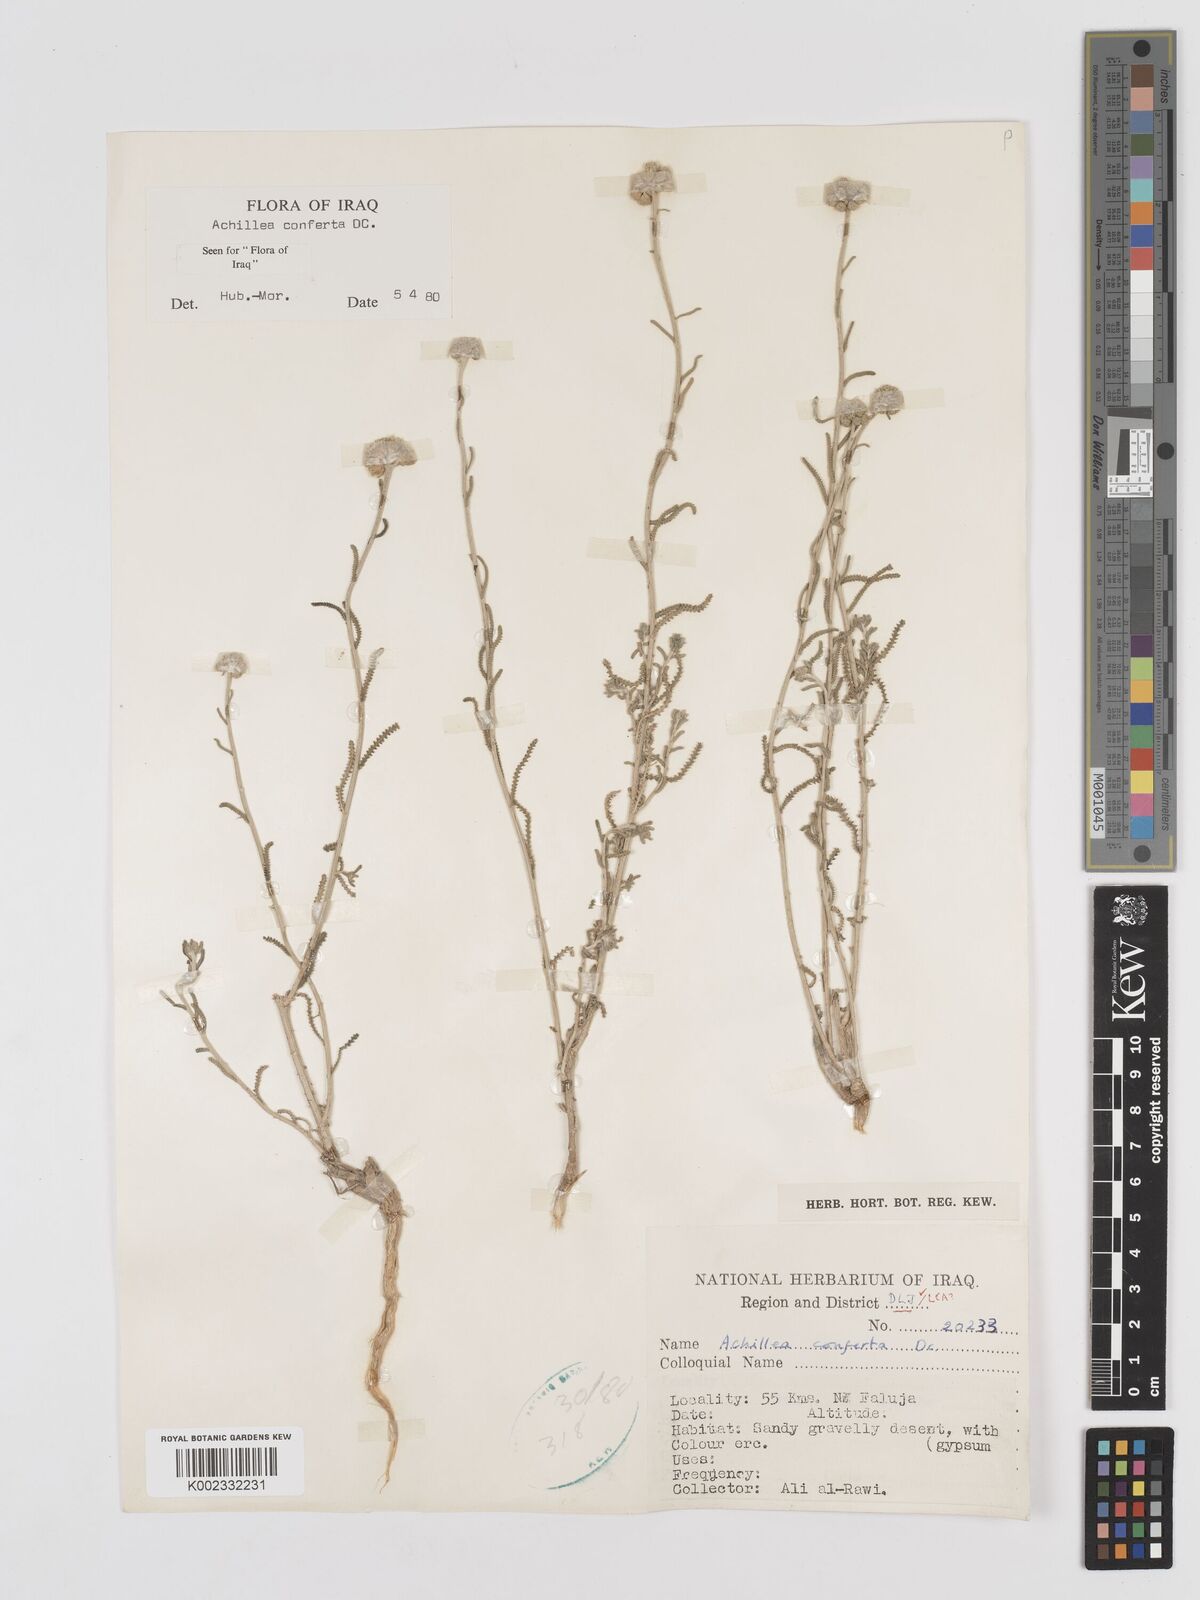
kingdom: Plantae
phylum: Tracheophyta
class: Magnoliopsida
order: Asterales
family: Asteraceae
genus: Achillea
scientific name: Achillea conferta
